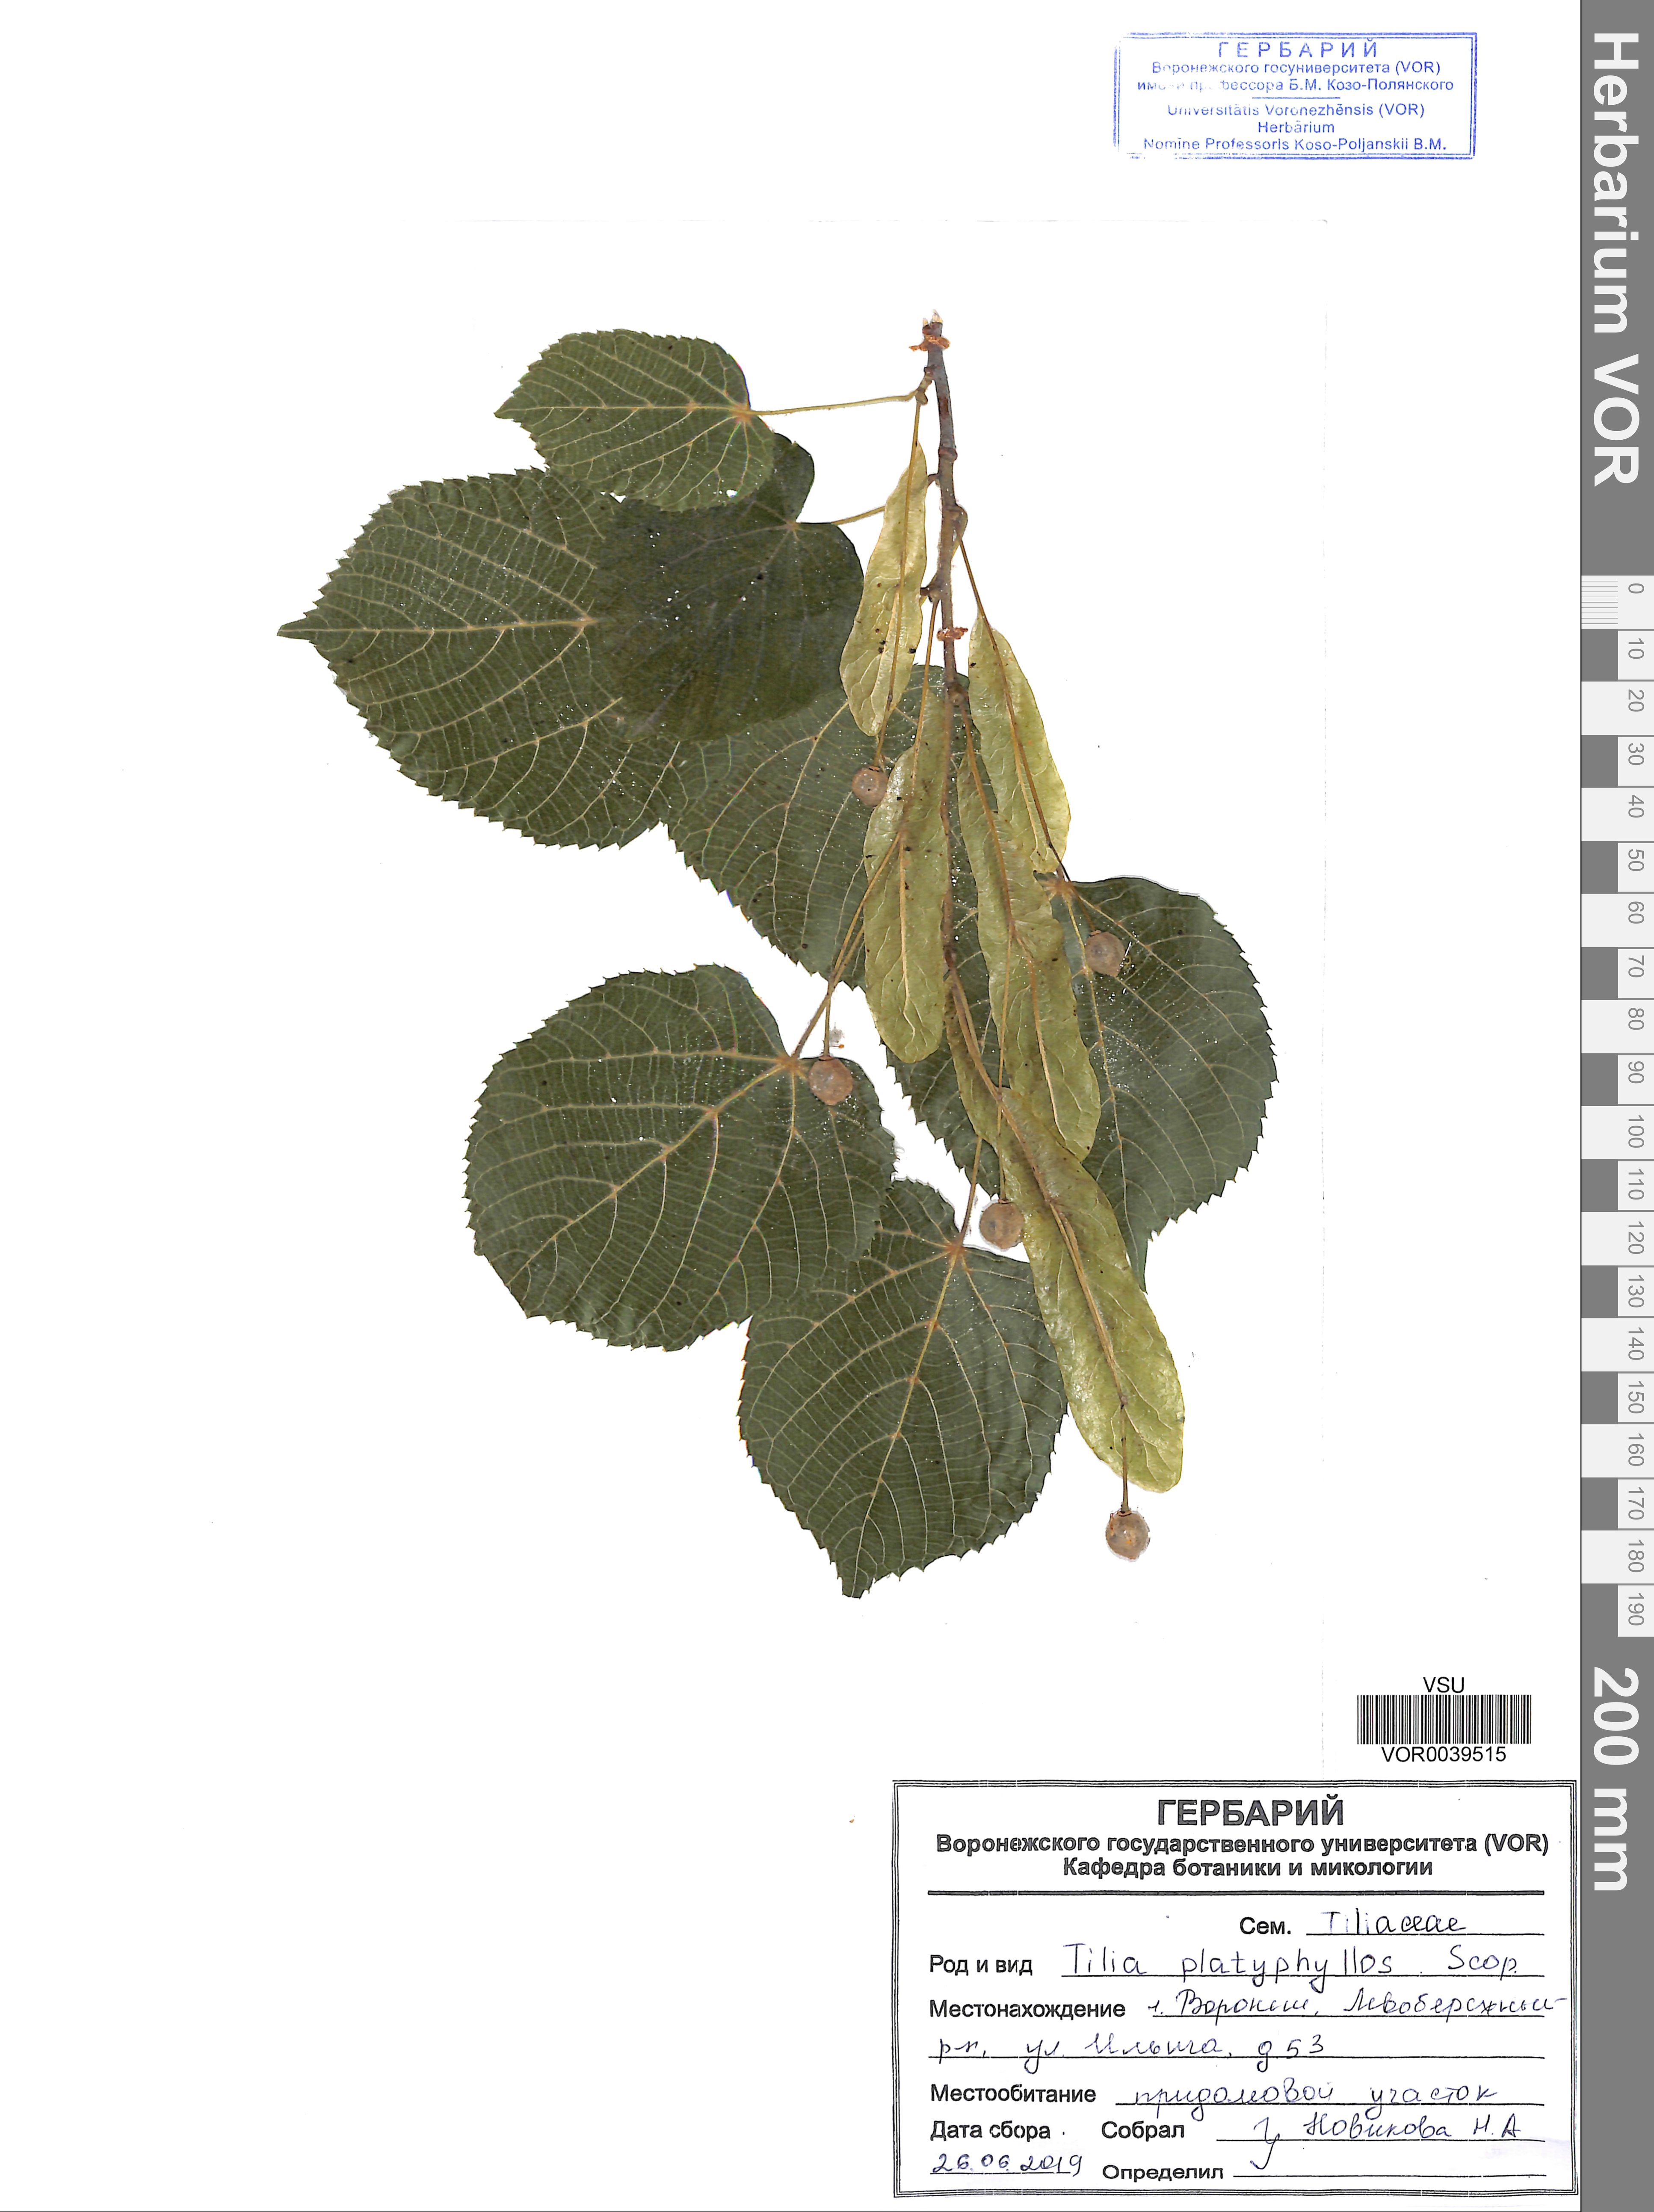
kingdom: Plantae
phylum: Tracheophyta
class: Magnoliopsida
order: Malvales
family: Malvaceae
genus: Tilia
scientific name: Tilia platyphyllos
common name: Large-leaved lime
